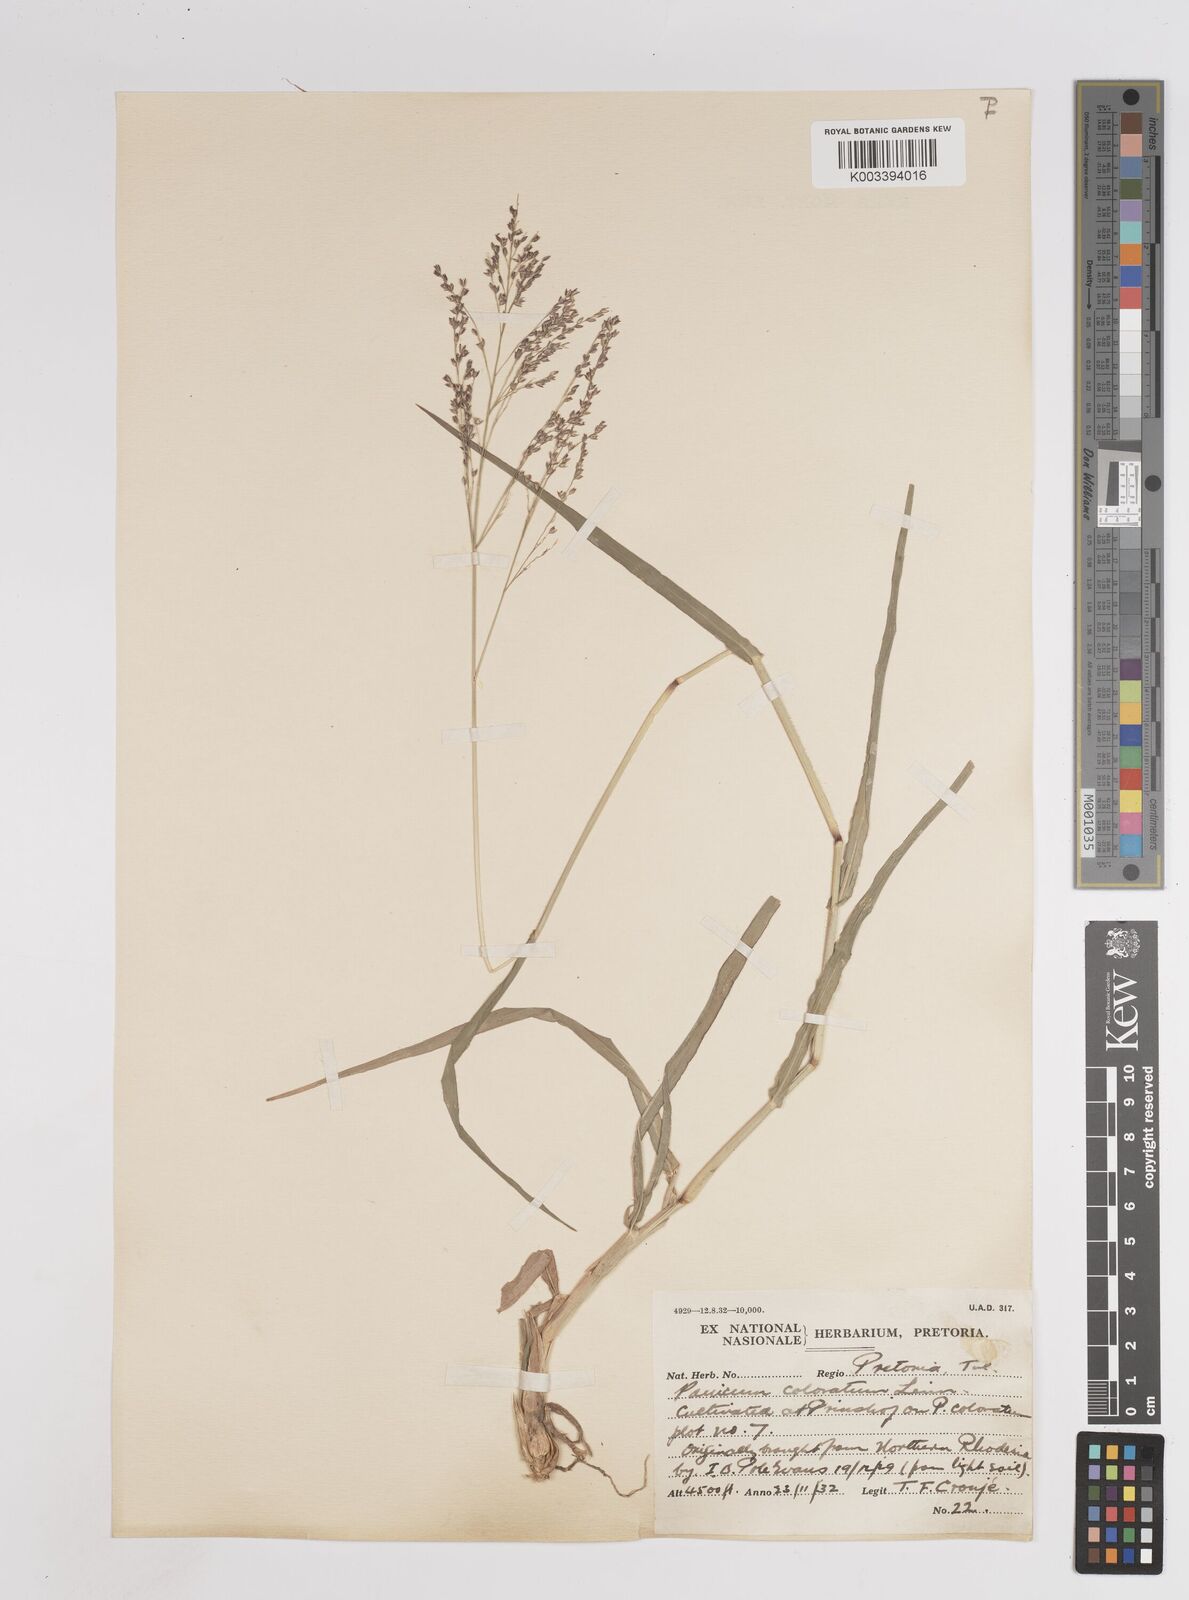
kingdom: Plantae
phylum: Tracheophyta
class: Liliopsida
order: Poales
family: Poaceae
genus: Panicum
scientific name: Panicum coloratum
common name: Kleingrass
